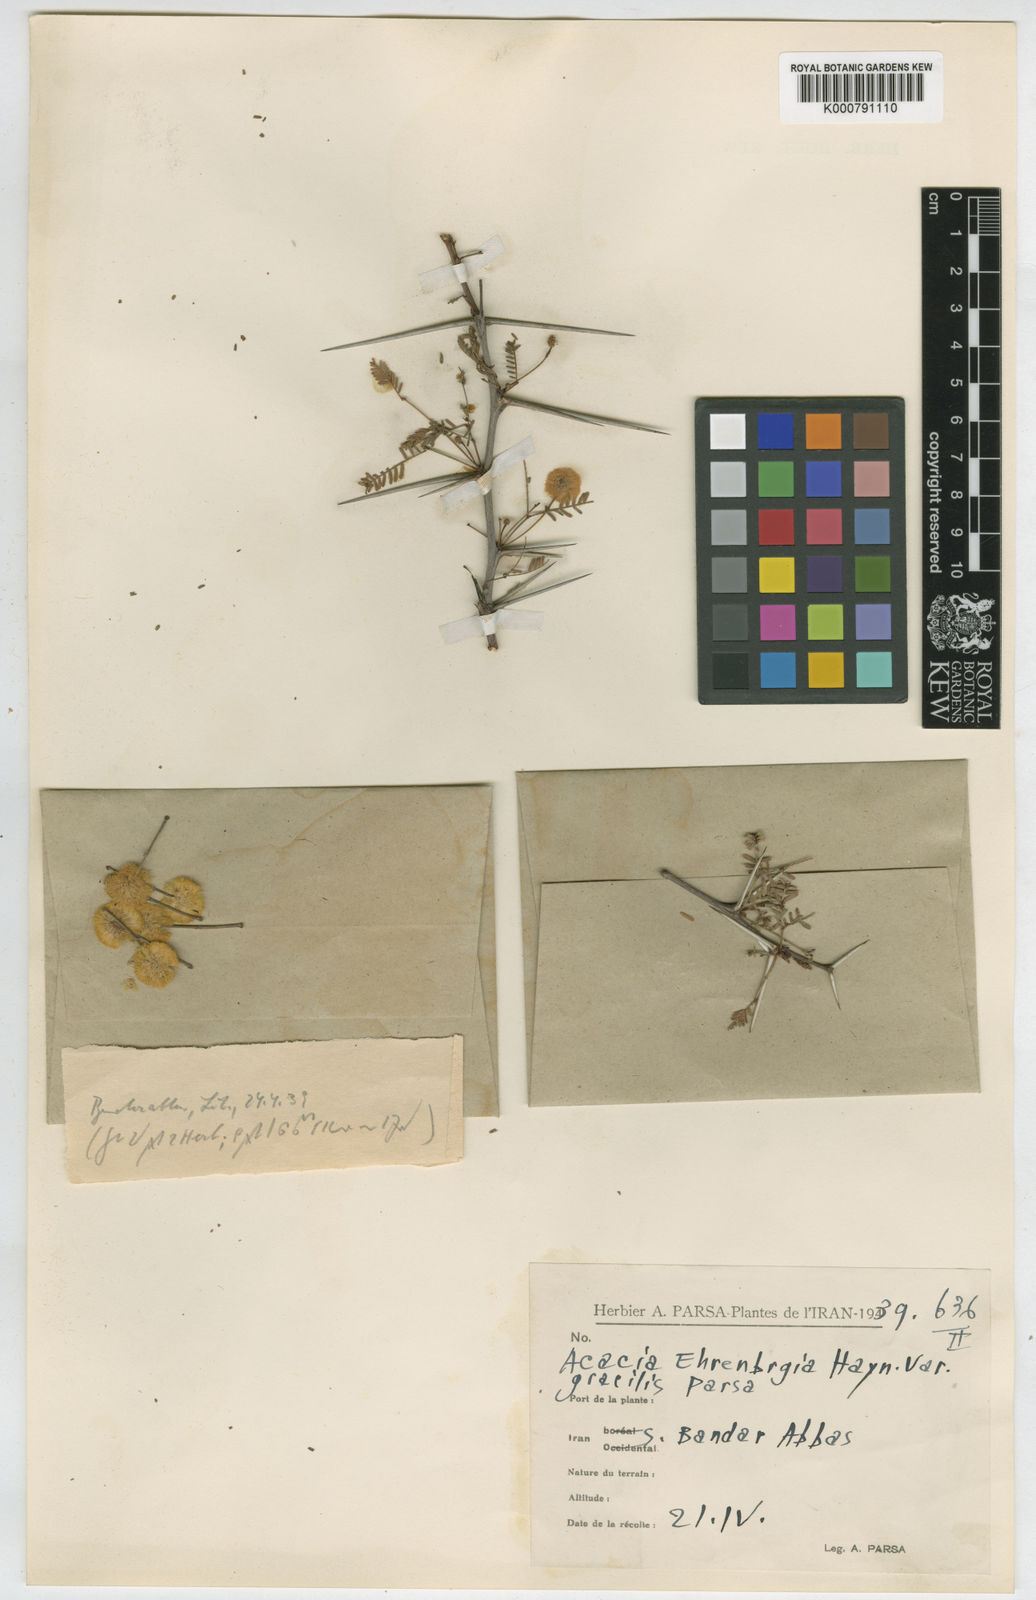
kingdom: Plantae
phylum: Tracheophyta
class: Magnoliopsida
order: Fabales
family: Fabaceae
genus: Vachellia
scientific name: Vachellia flava
